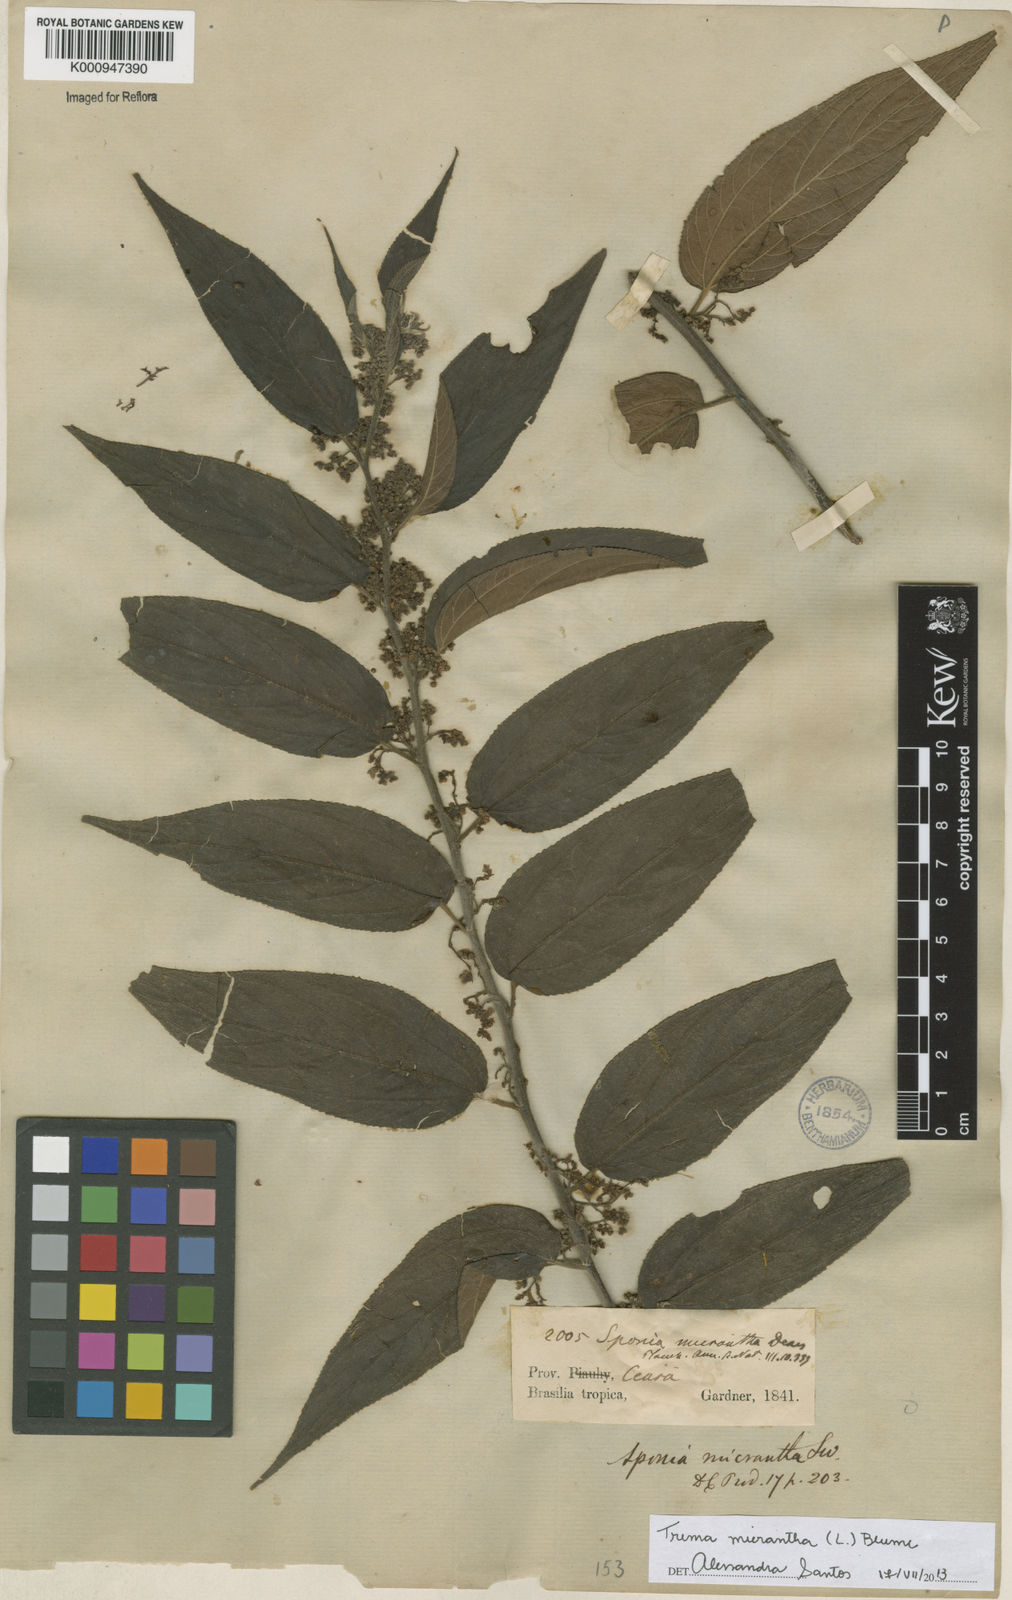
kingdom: Plantae
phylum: Tracheophyta
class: Magnoliopsida
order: Rosales
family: Cannabaceae
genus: Trema
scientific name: Trema micranthum
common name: Jamaican nettletree
